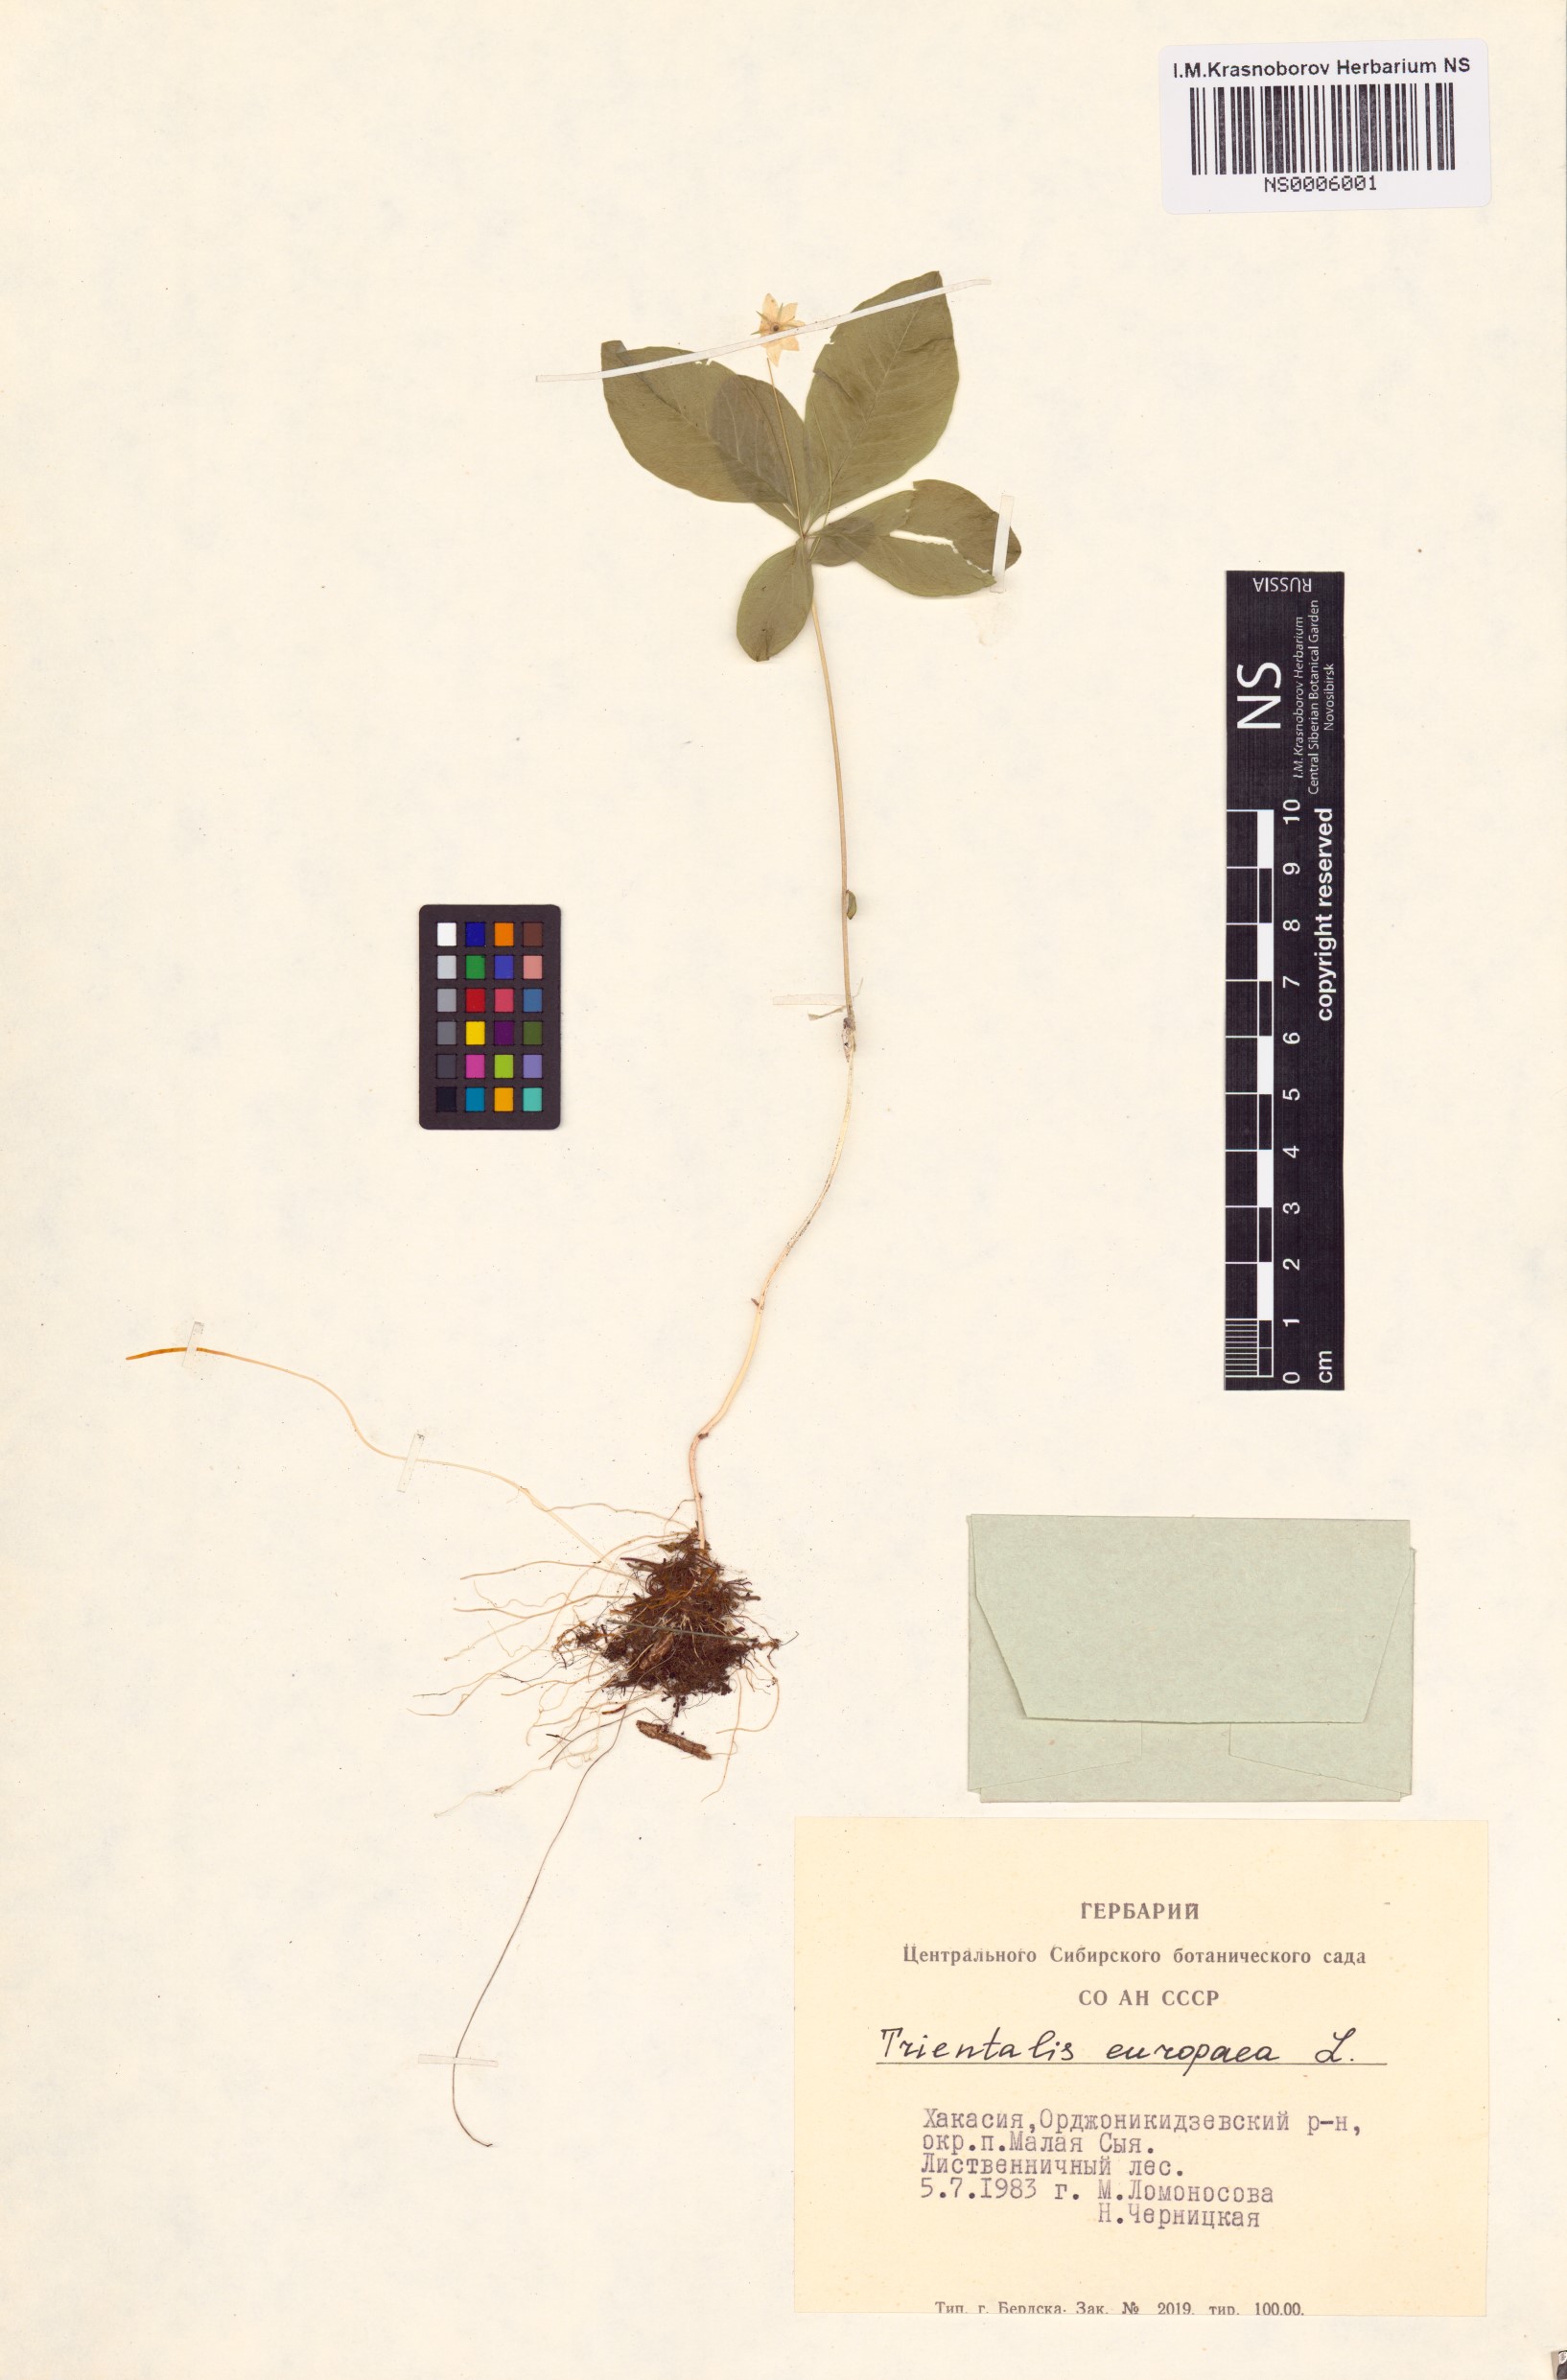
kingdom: Plantae
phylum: Tracheophyta
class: Magnoliopsida
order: Ericales
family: Primulaceae
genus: Lysimachia
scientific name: Lysimachia europaea
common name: Arctic starflower
